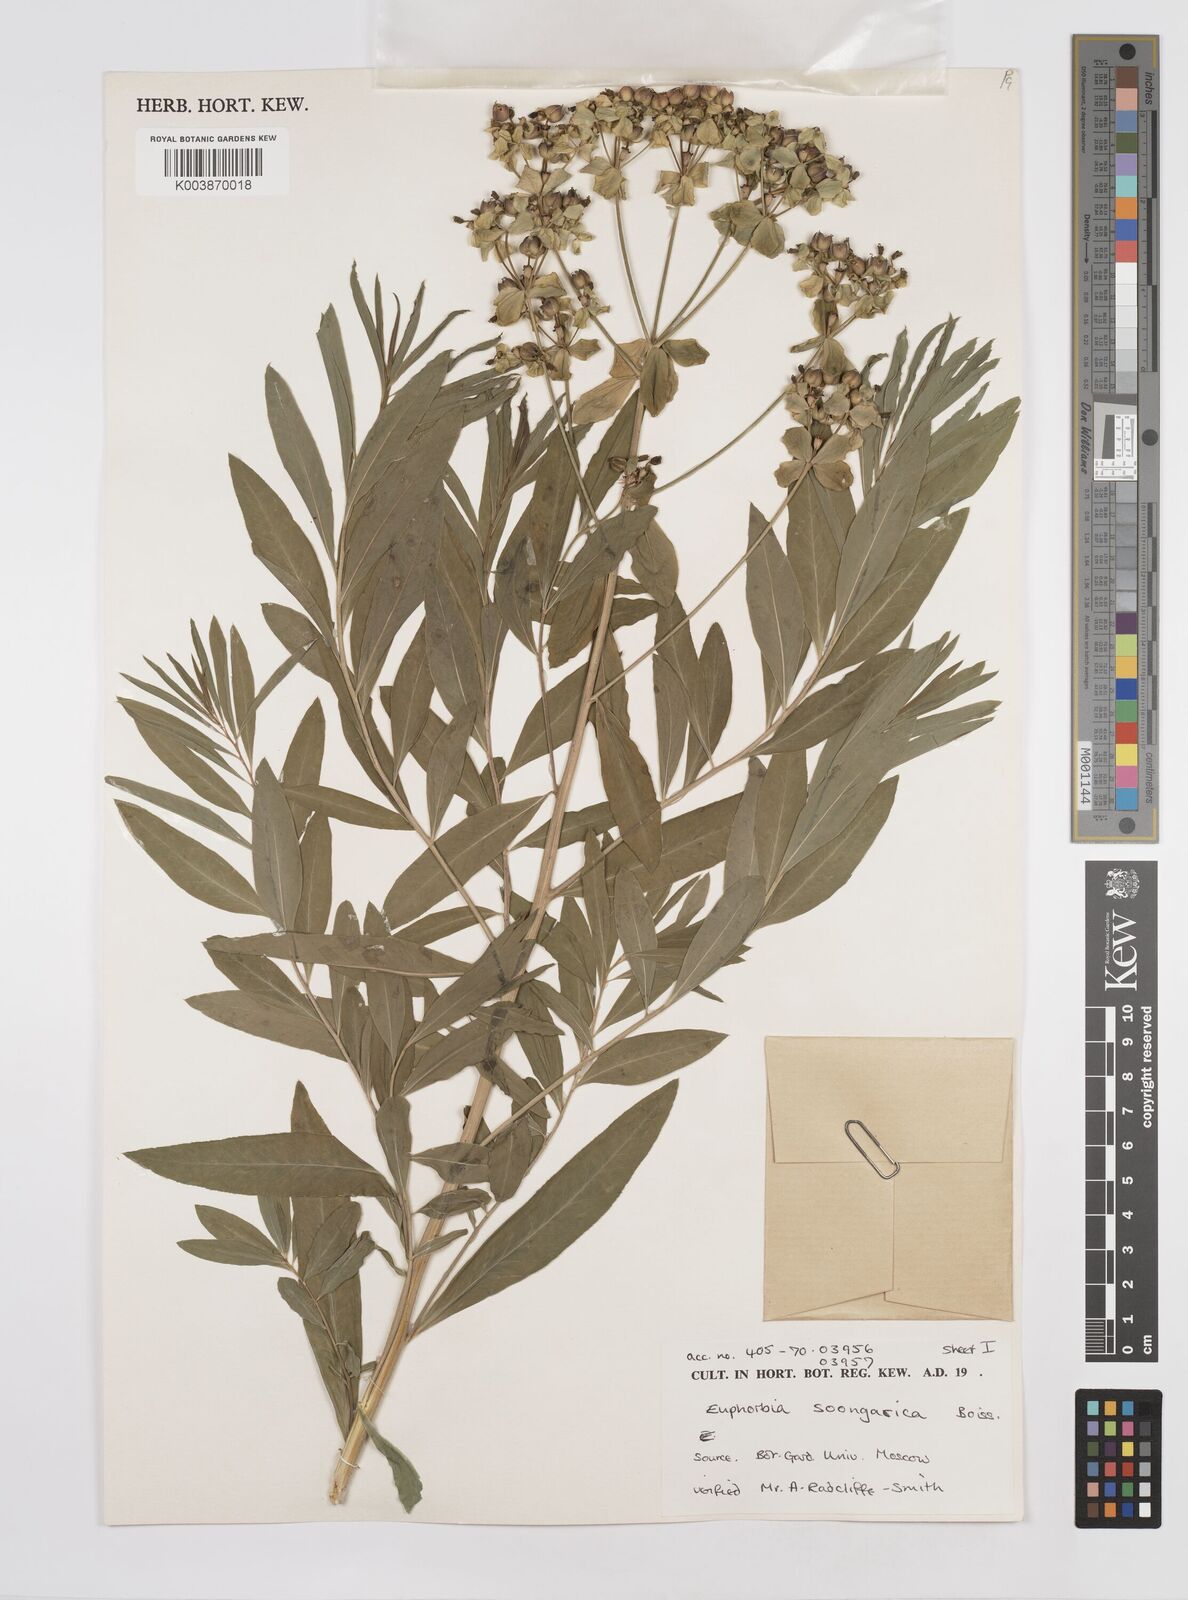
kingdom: Plantae
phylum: Tracheophyta
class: Magnoliopsida
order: Malpighiales
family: Euphorbiaceae
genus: Euphorbia
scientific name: Euphorbia soongarica
